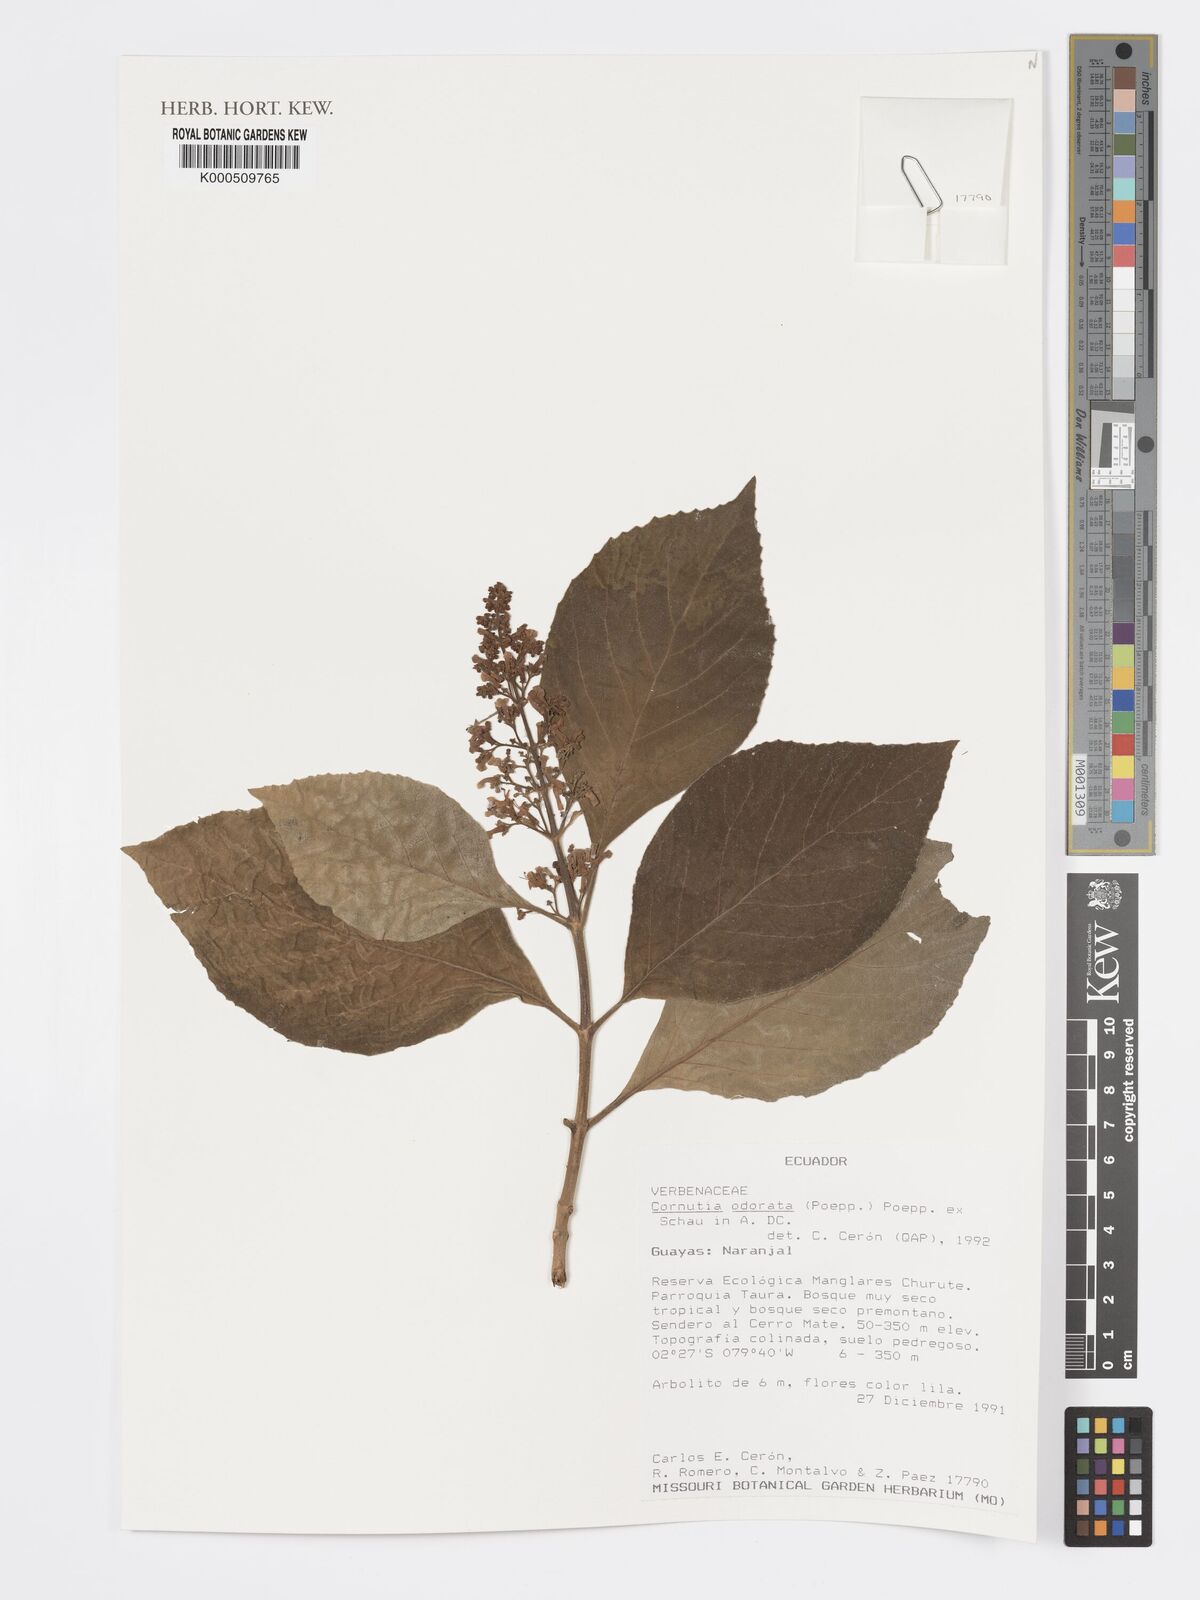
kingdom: Plantae
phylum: Tracheophyta
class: Magnoliopsida
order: Lamiales
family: Lamiaceae
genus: Cornutia
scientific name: Cornutia odorata
